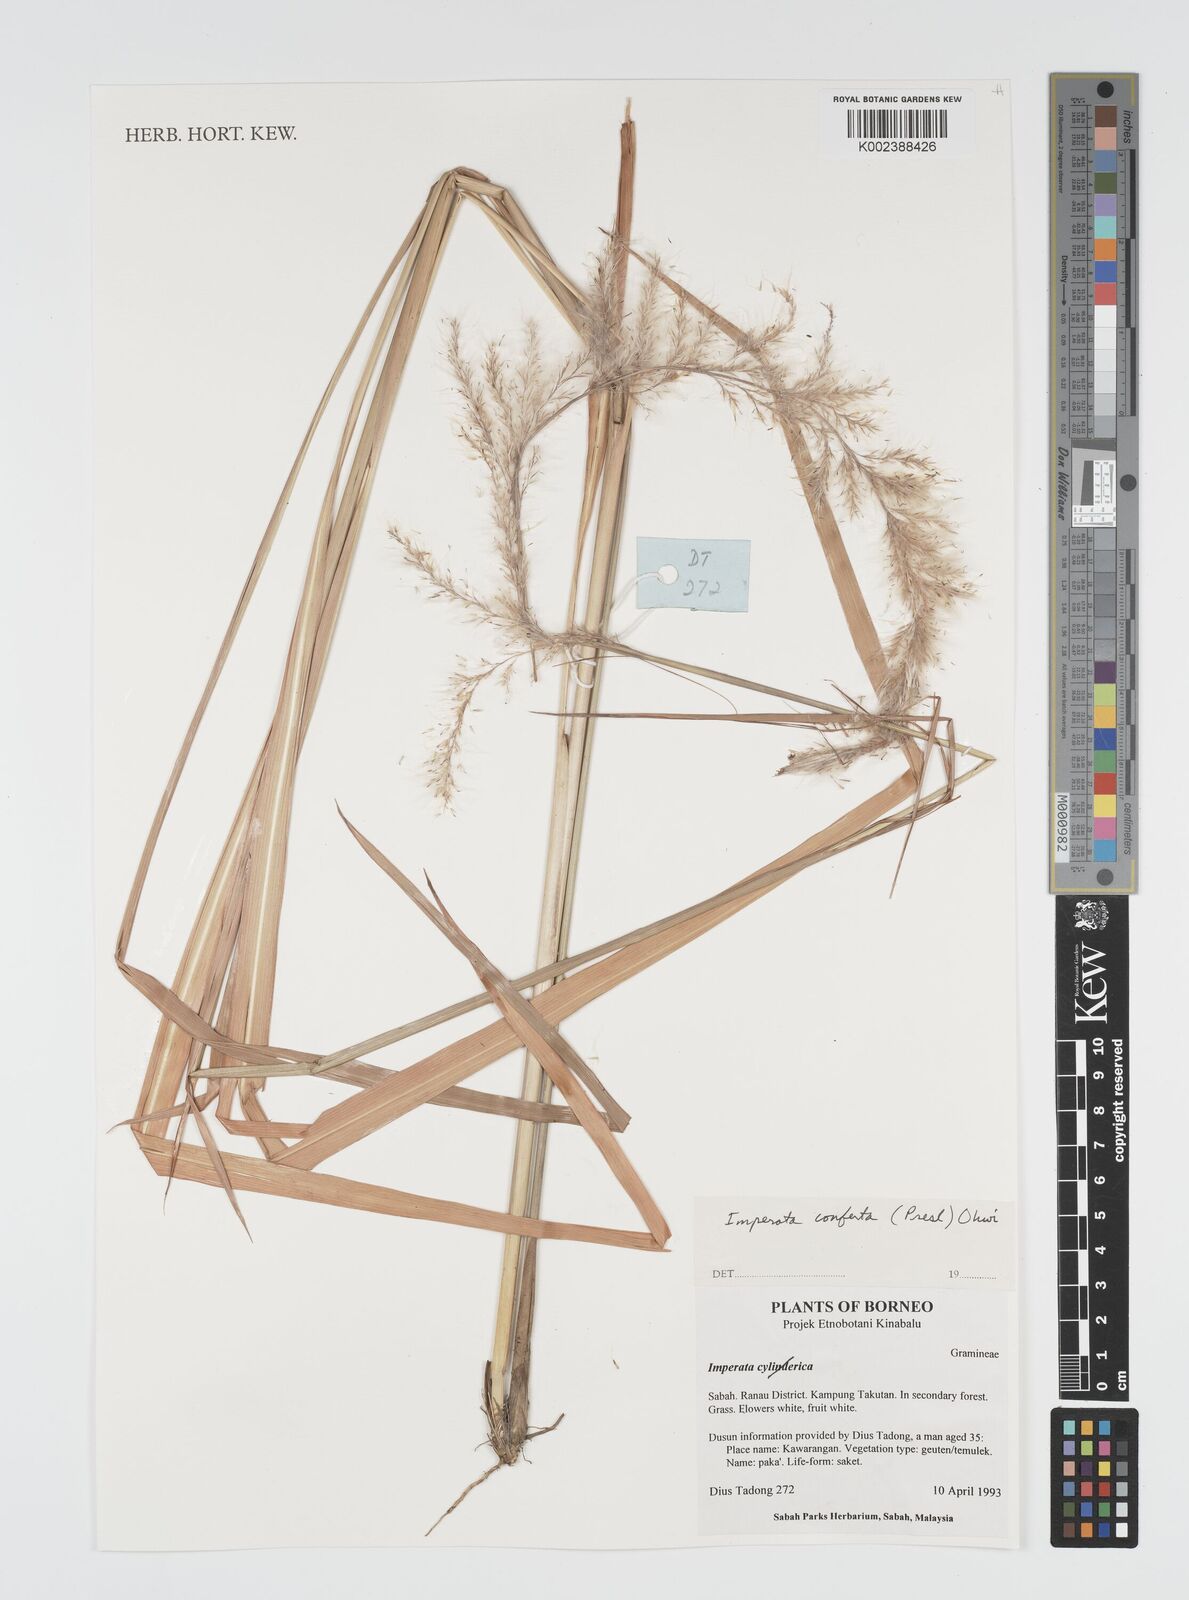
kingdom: Plantae
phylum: Tracheophyta
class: Liliopsida
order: Poales
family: Poaceae
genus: Imperata
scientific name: Imperata conferta
